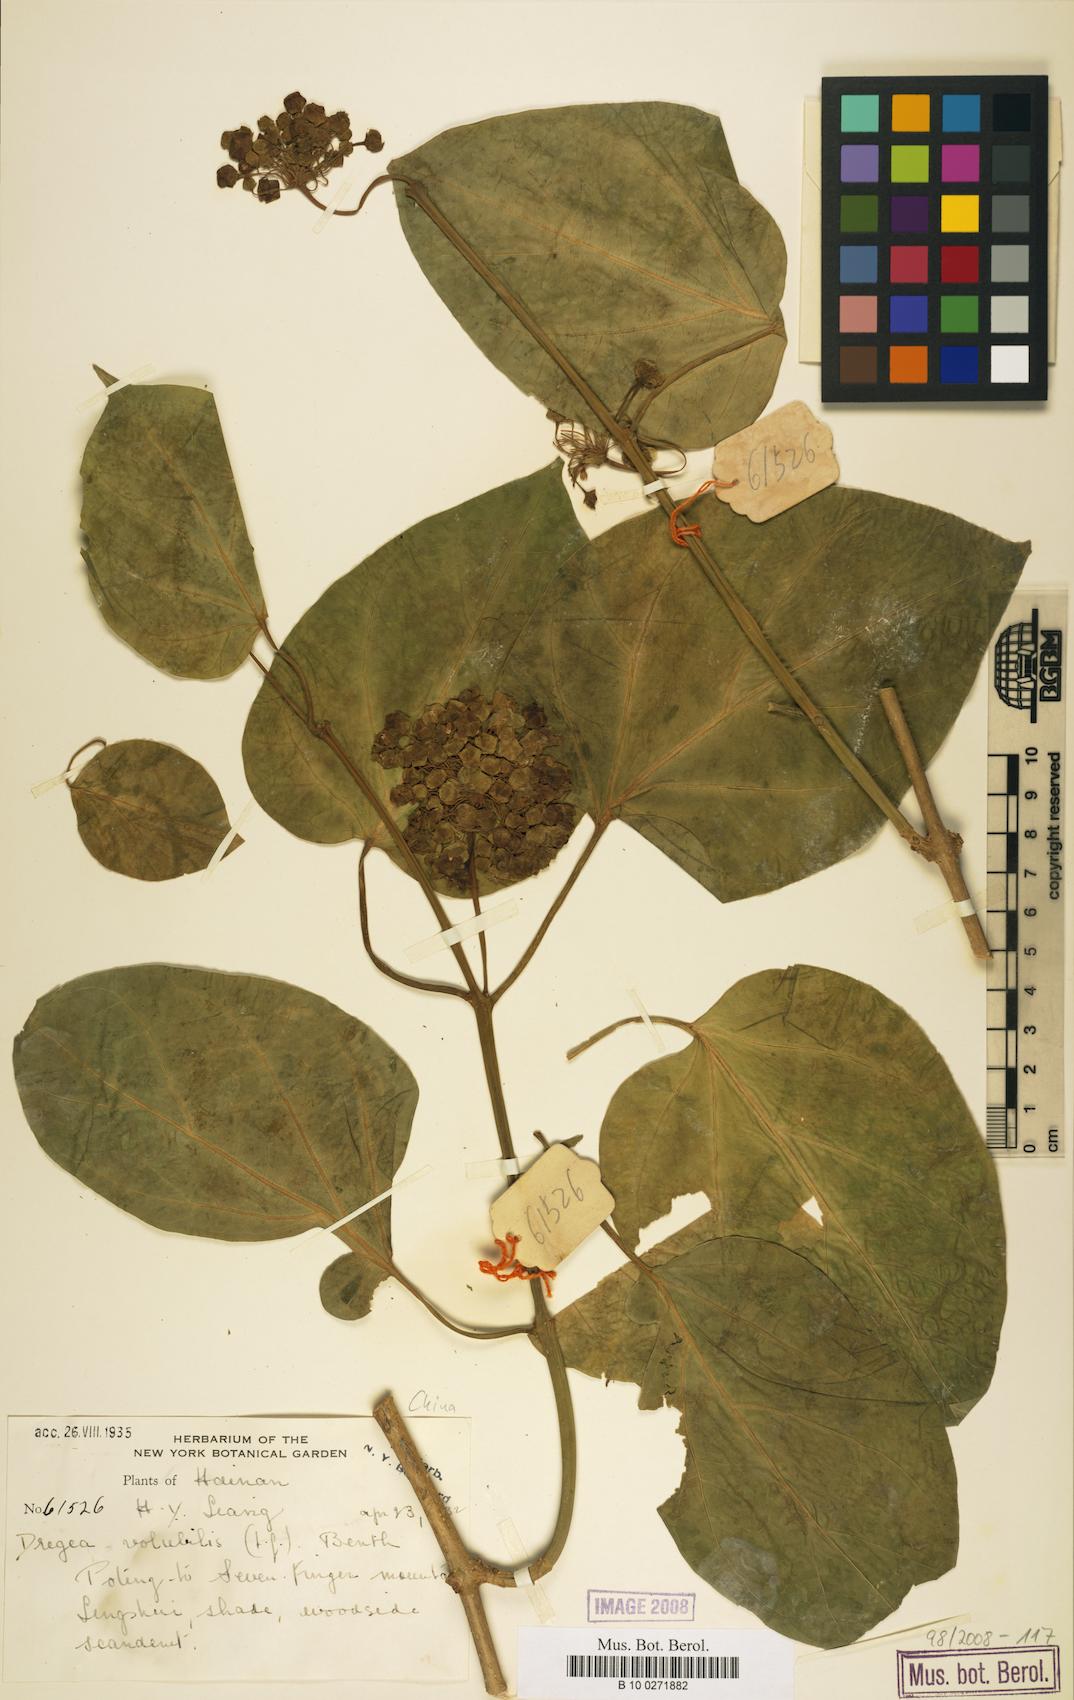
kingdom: Plantae
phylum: Tracheophyta
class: Magnoliopsida
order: Gentianales
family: Apocynaceae
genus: Stephanotis
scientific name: Stephanotis volubilis
